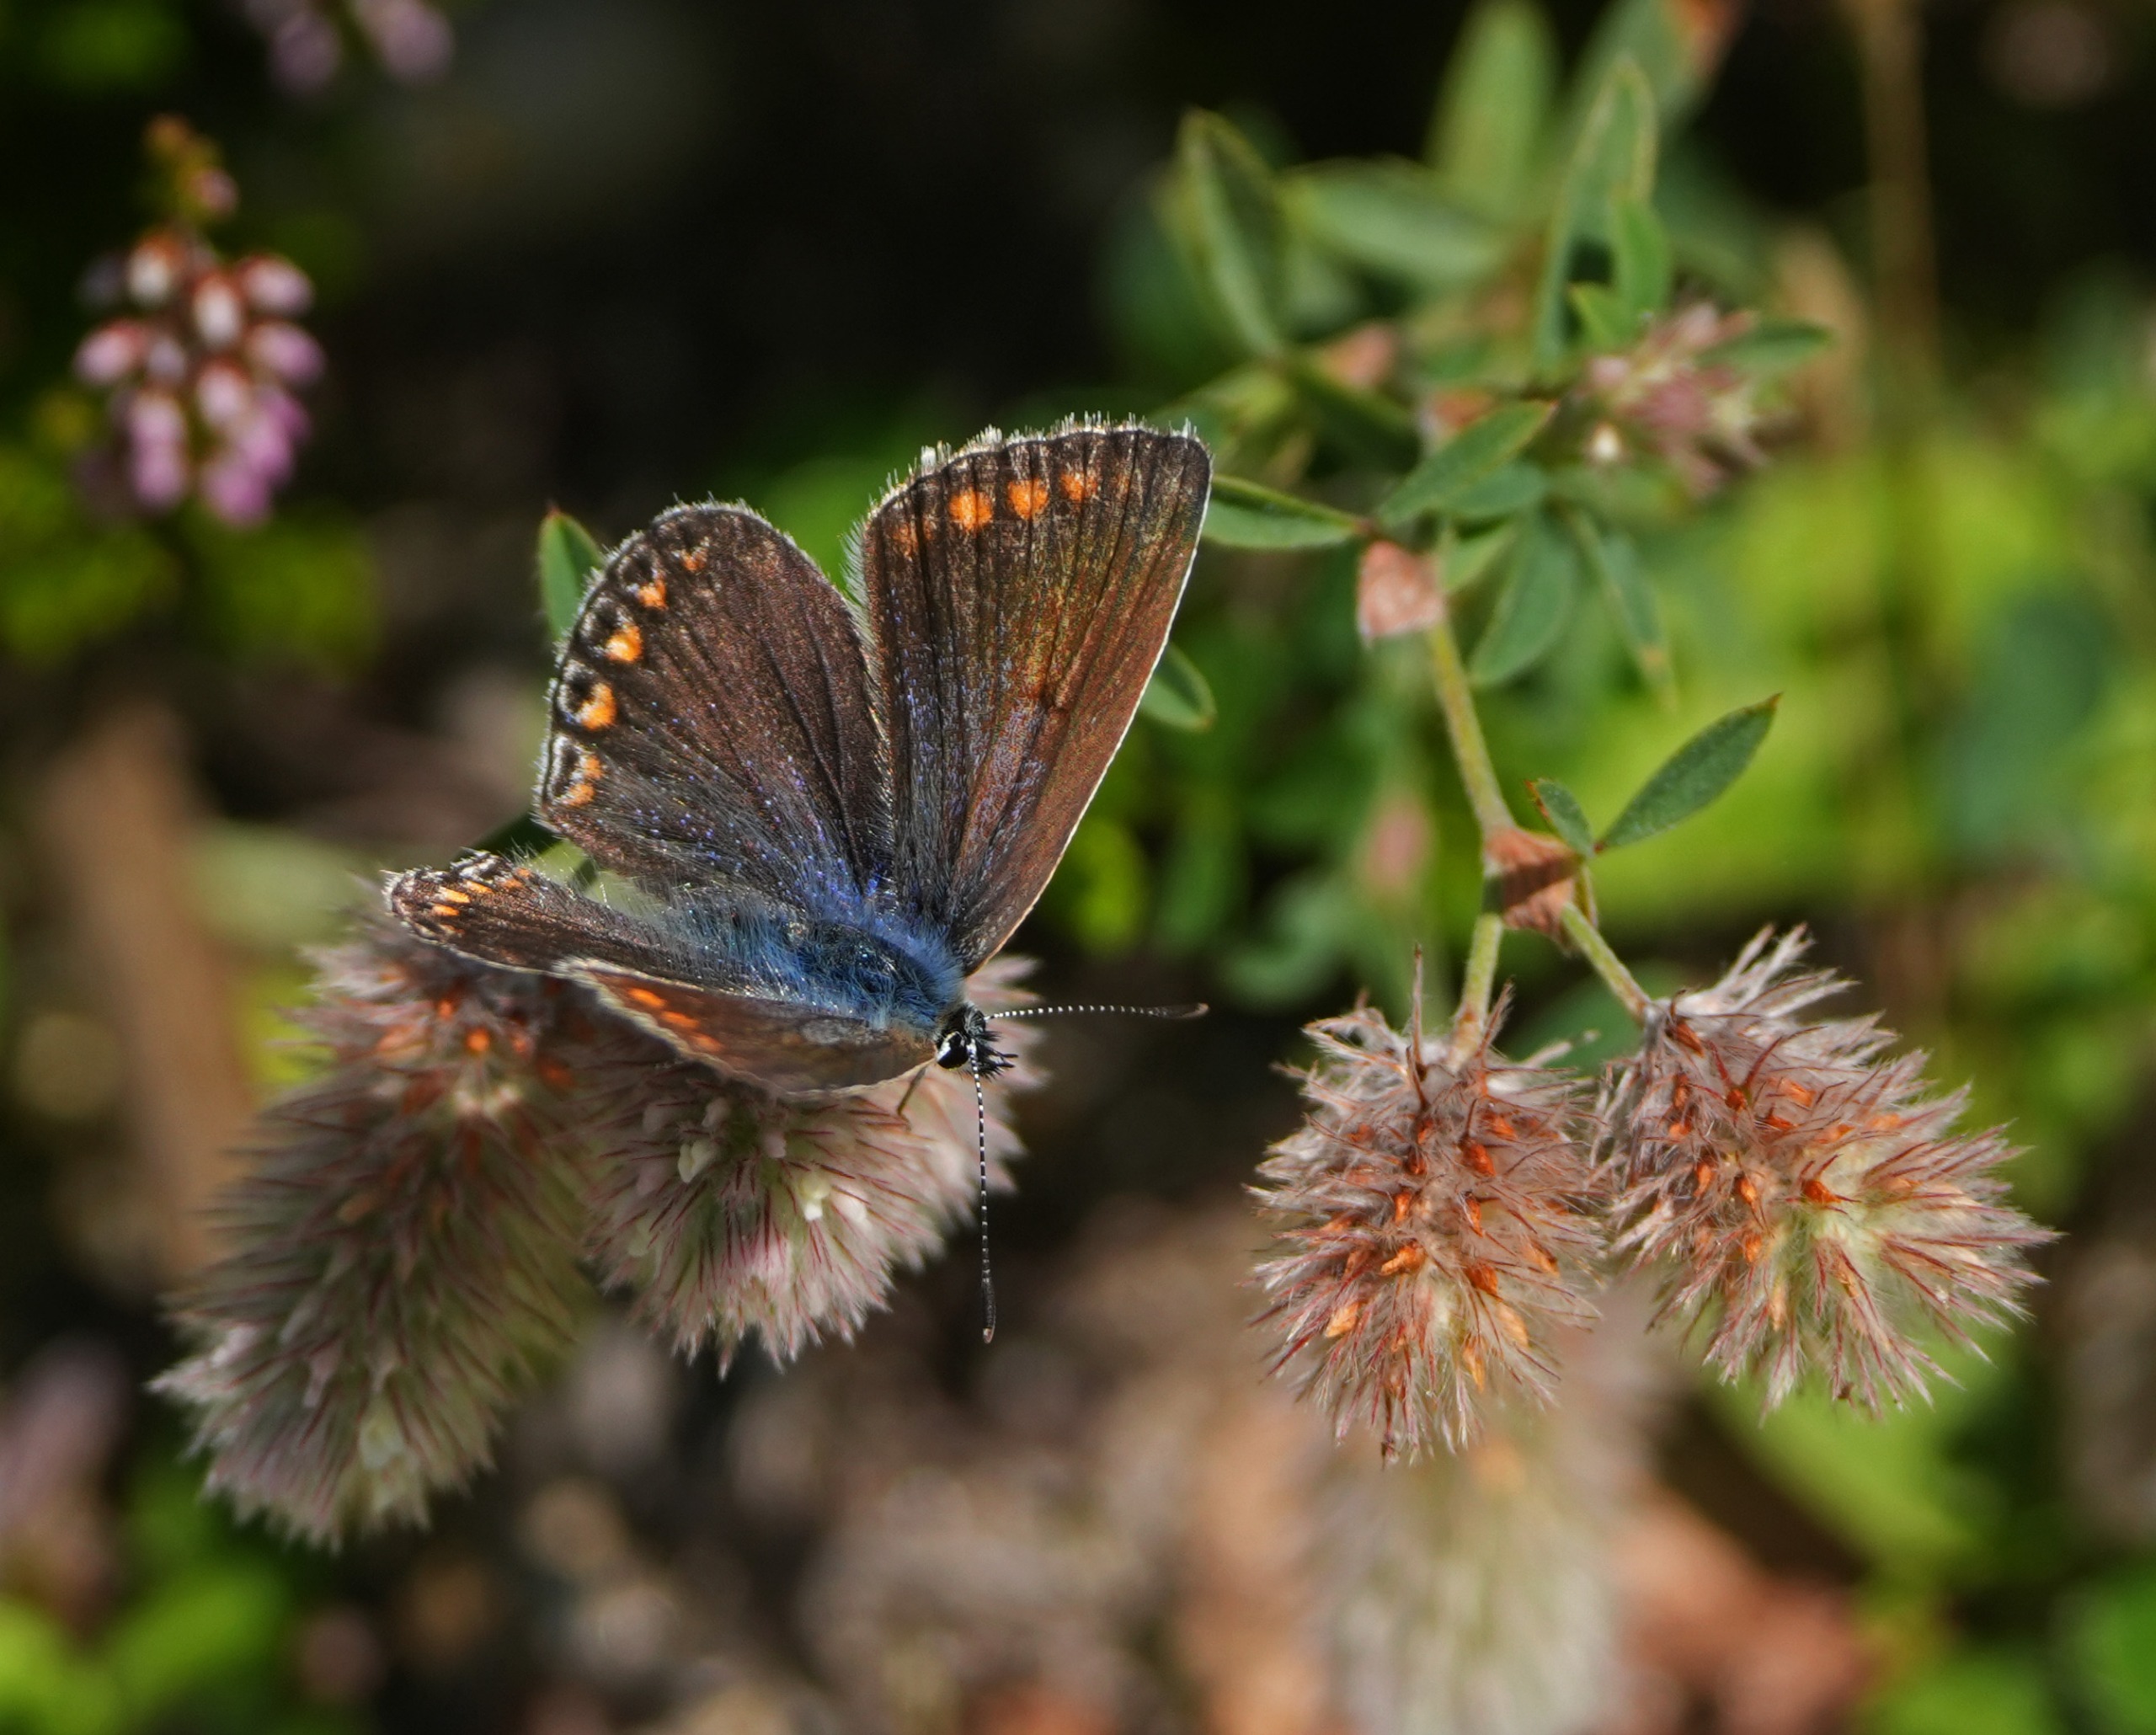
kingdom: Animalia
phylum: Arthropoda
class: Insecta
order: Lepidoptera
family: Lycaenidae
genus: Polyommatus
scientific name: Polyommatus icarus
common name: Almindelig blåfugl
